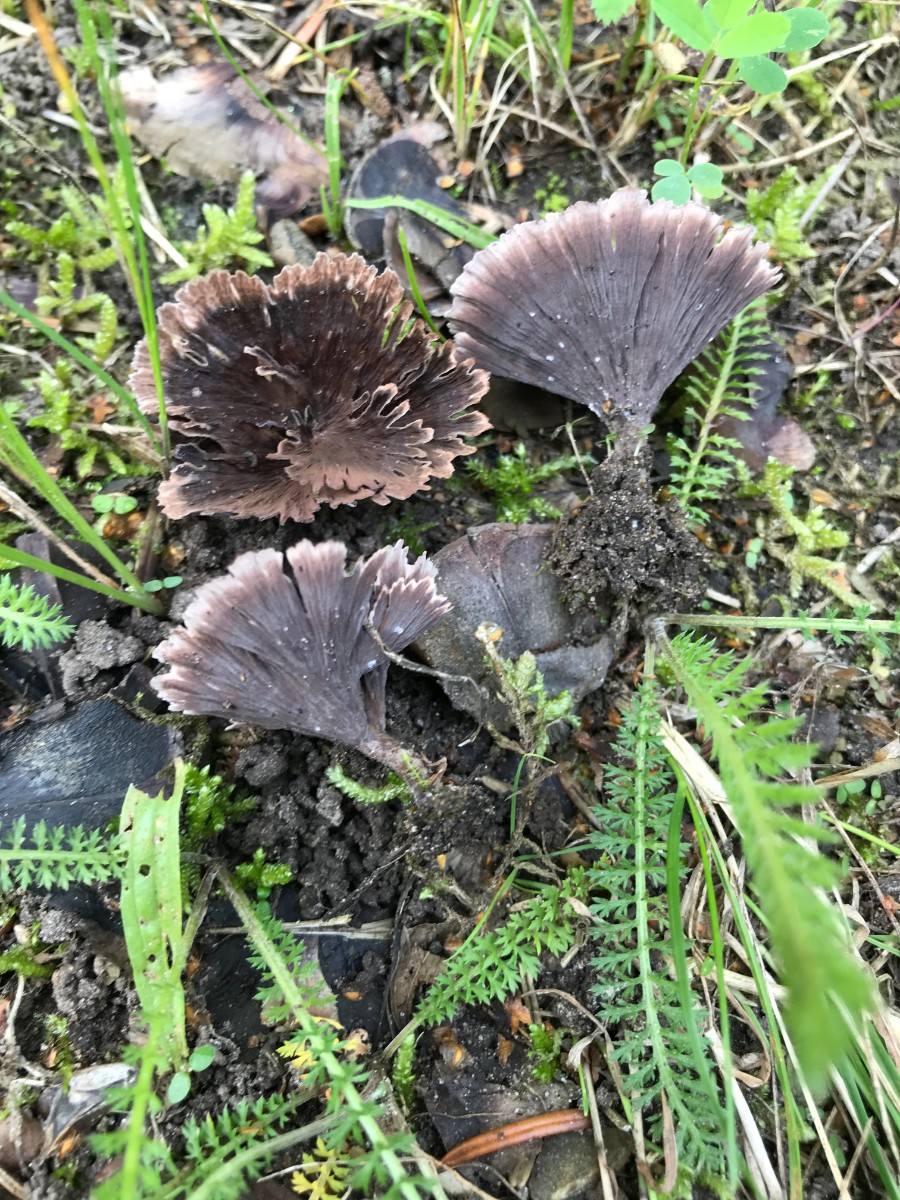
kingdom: Fungi
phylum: Basidiomycota
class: Agaricomycetes
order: Thelephorales
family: Thelephoraceae
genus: Thelephora
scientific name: Thelephora caryophyllea
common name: tragt-frynsesvamp
